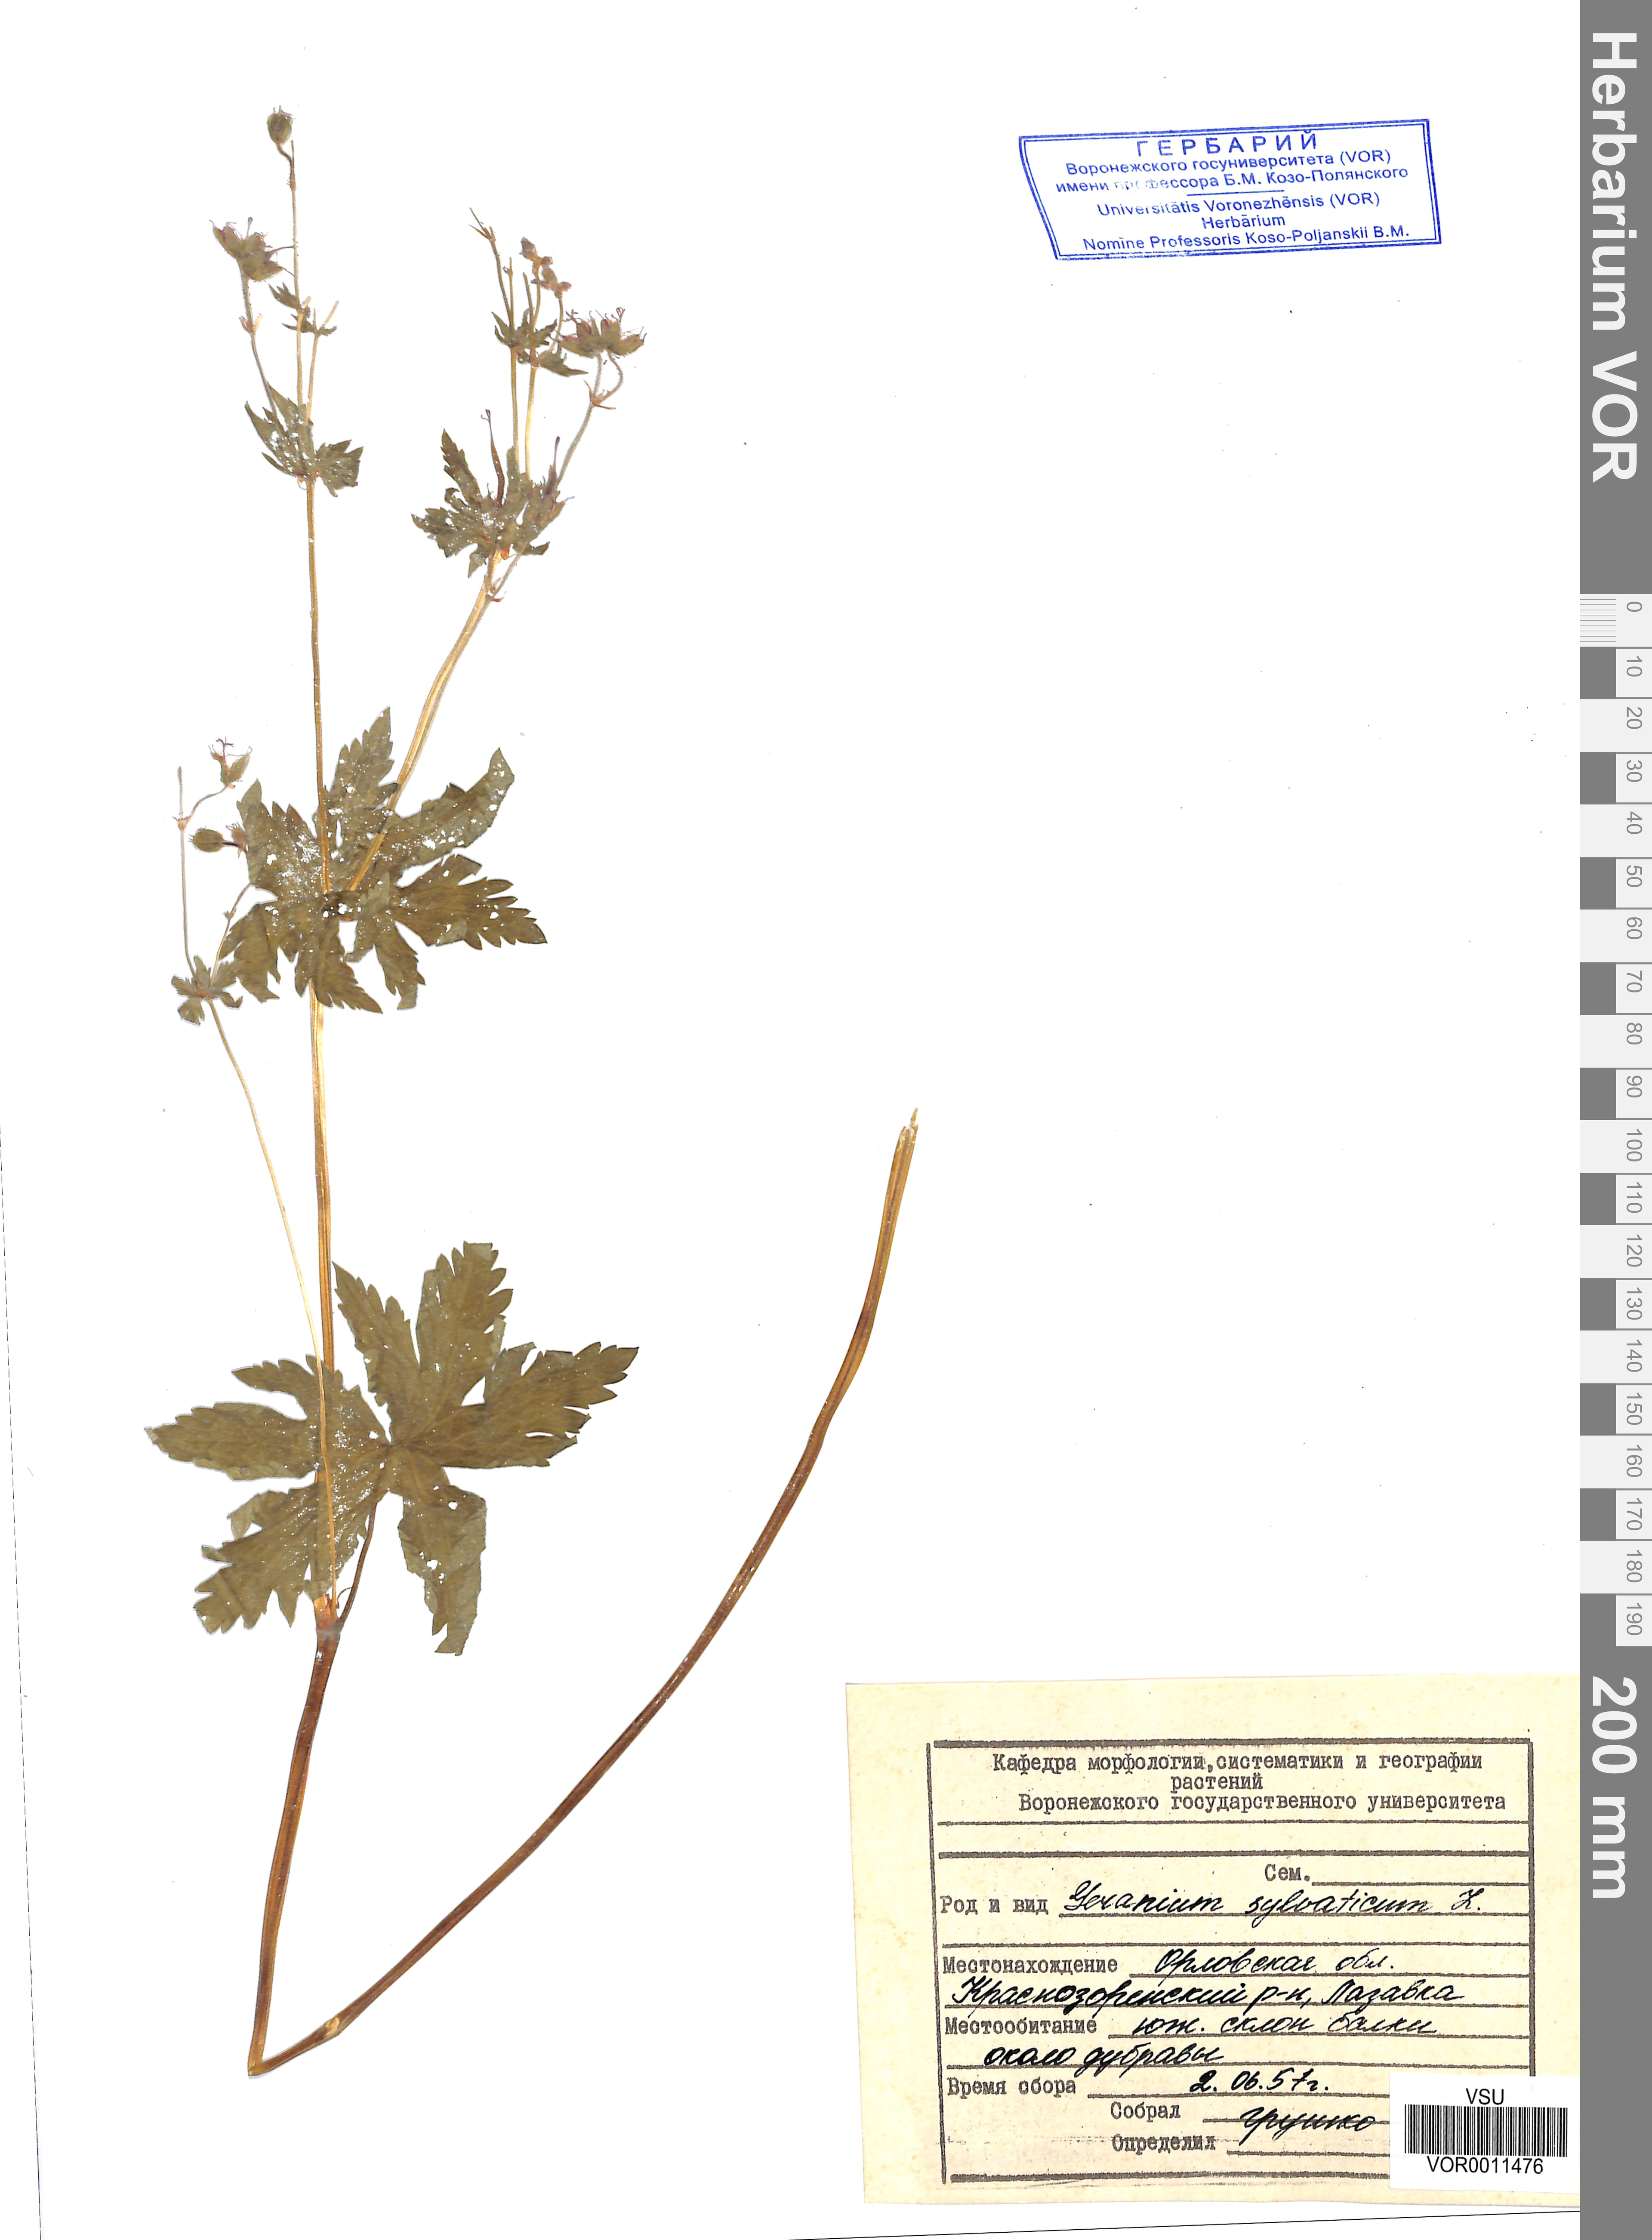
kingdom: Plantae
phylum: Tracheophyta
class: Magnoliopsida
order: Geraniales
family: Geraniaceae
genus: Geranium
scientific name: Geranium sibiricum
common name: Siberian crane's-bill
